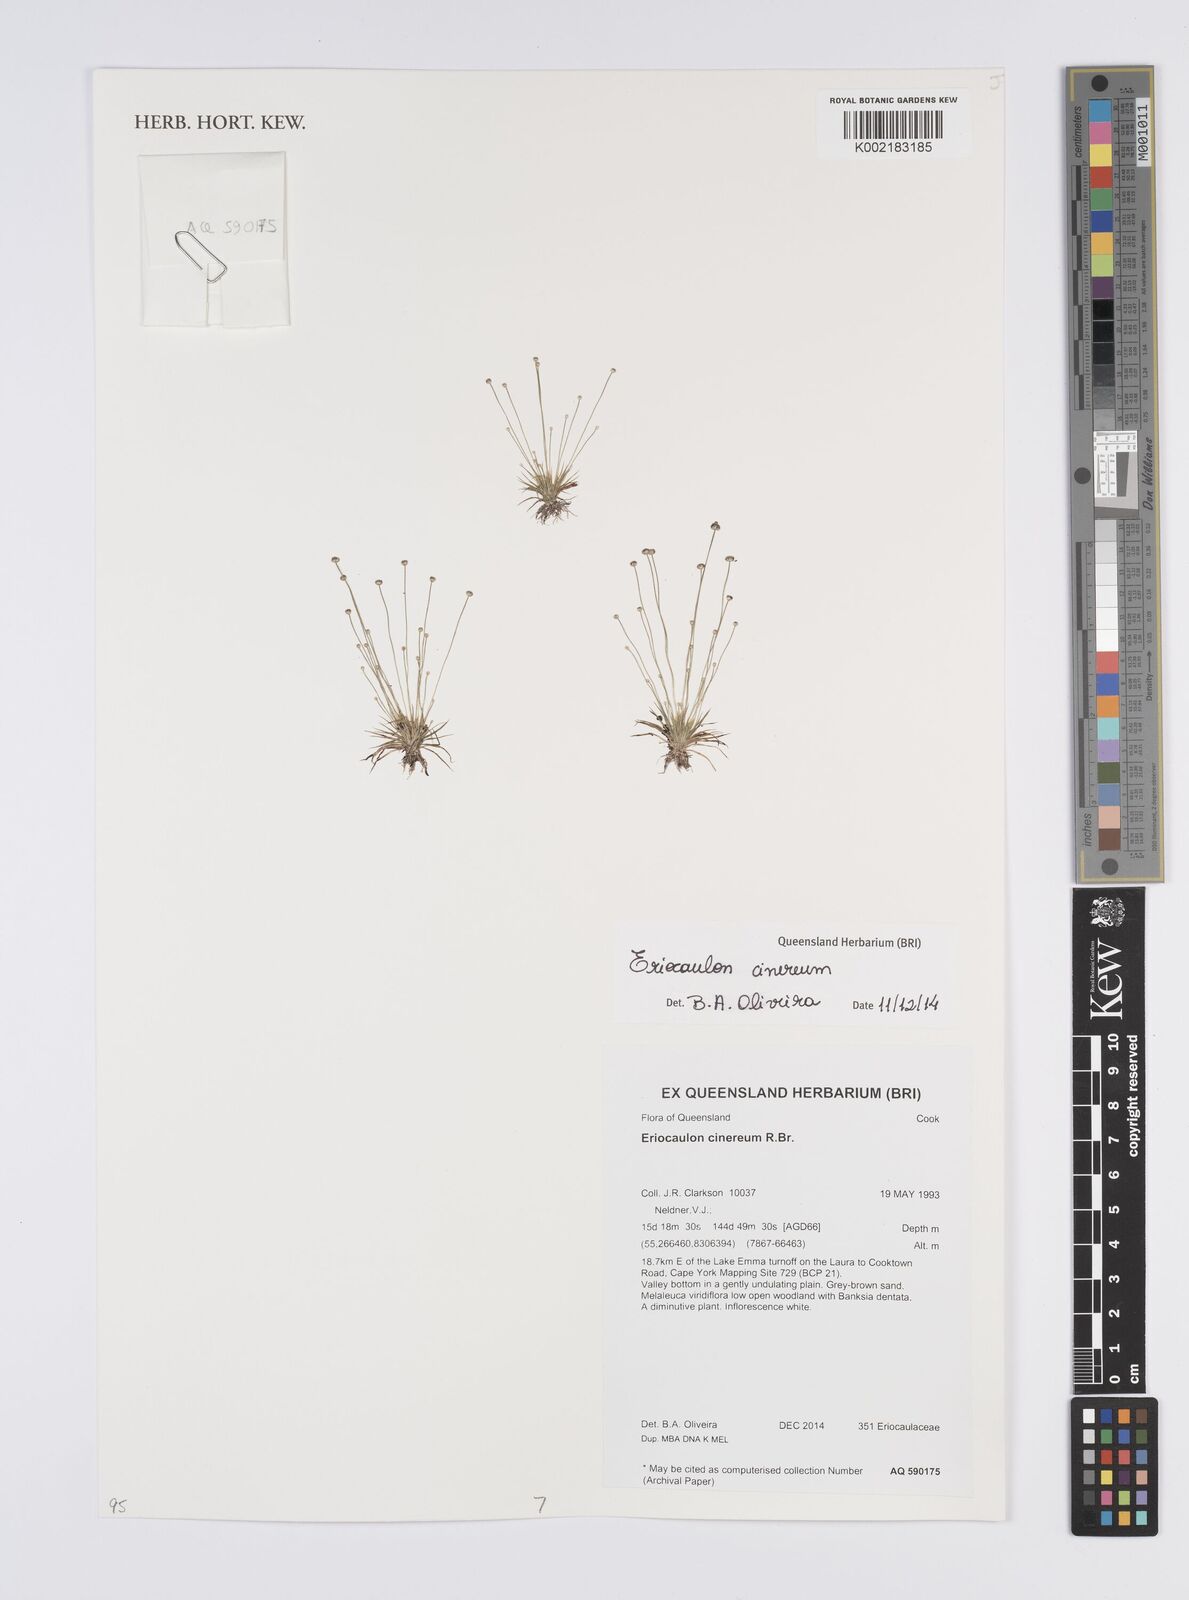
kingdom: Plantae
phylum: Tracheophyta
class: Liliopsida
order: Poales
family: Eriocaulaceae
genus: Eriocaulon
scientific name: Eriocaulon cinereum
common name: Ashy pipewort
